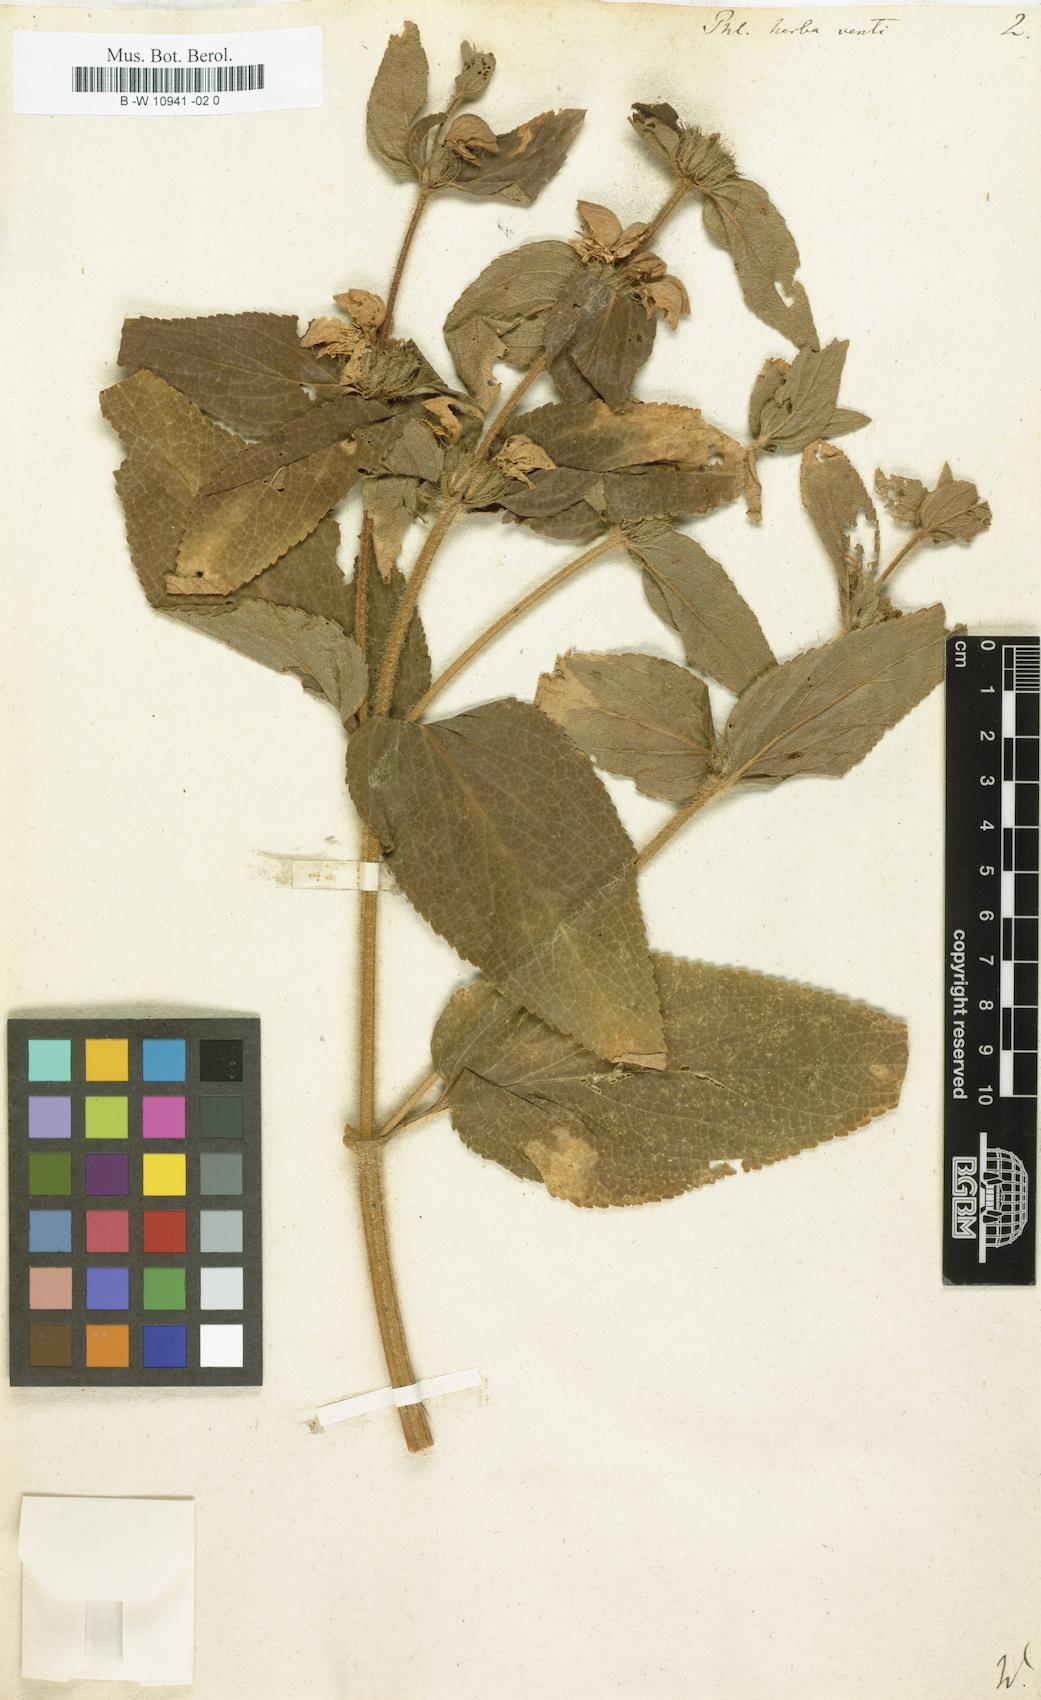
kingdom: Plantae
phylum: Tracheophyta
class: Magnoliopsida
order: Lamiales
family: Lamiaceae
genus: Phlomis
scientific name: Phlomis herba-venti
